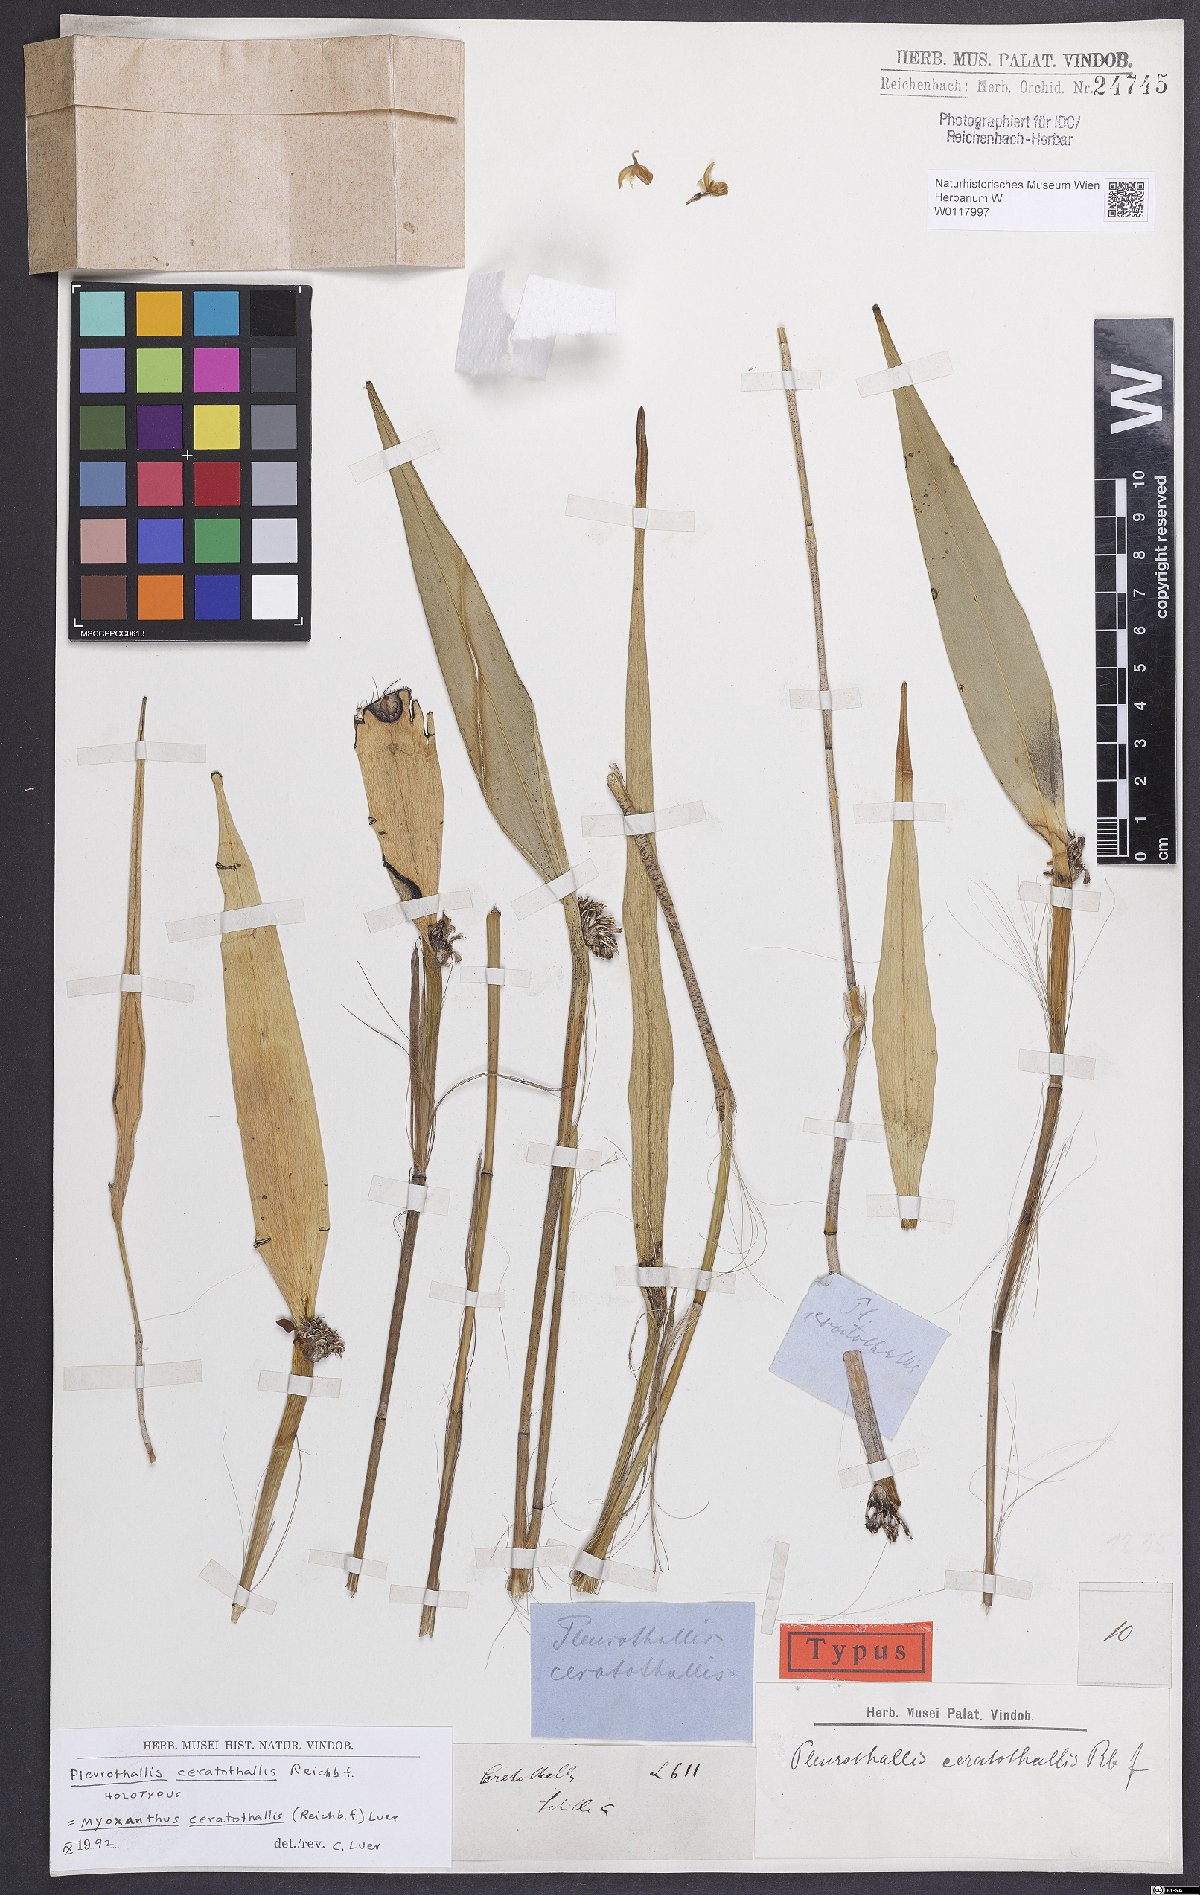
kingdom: Plantae
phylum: Tracheophyta
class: Liliopsida
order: Asparagales
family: Orchidaceae
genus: Myoxanthus
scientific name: Myoxanthus ceratothallis
